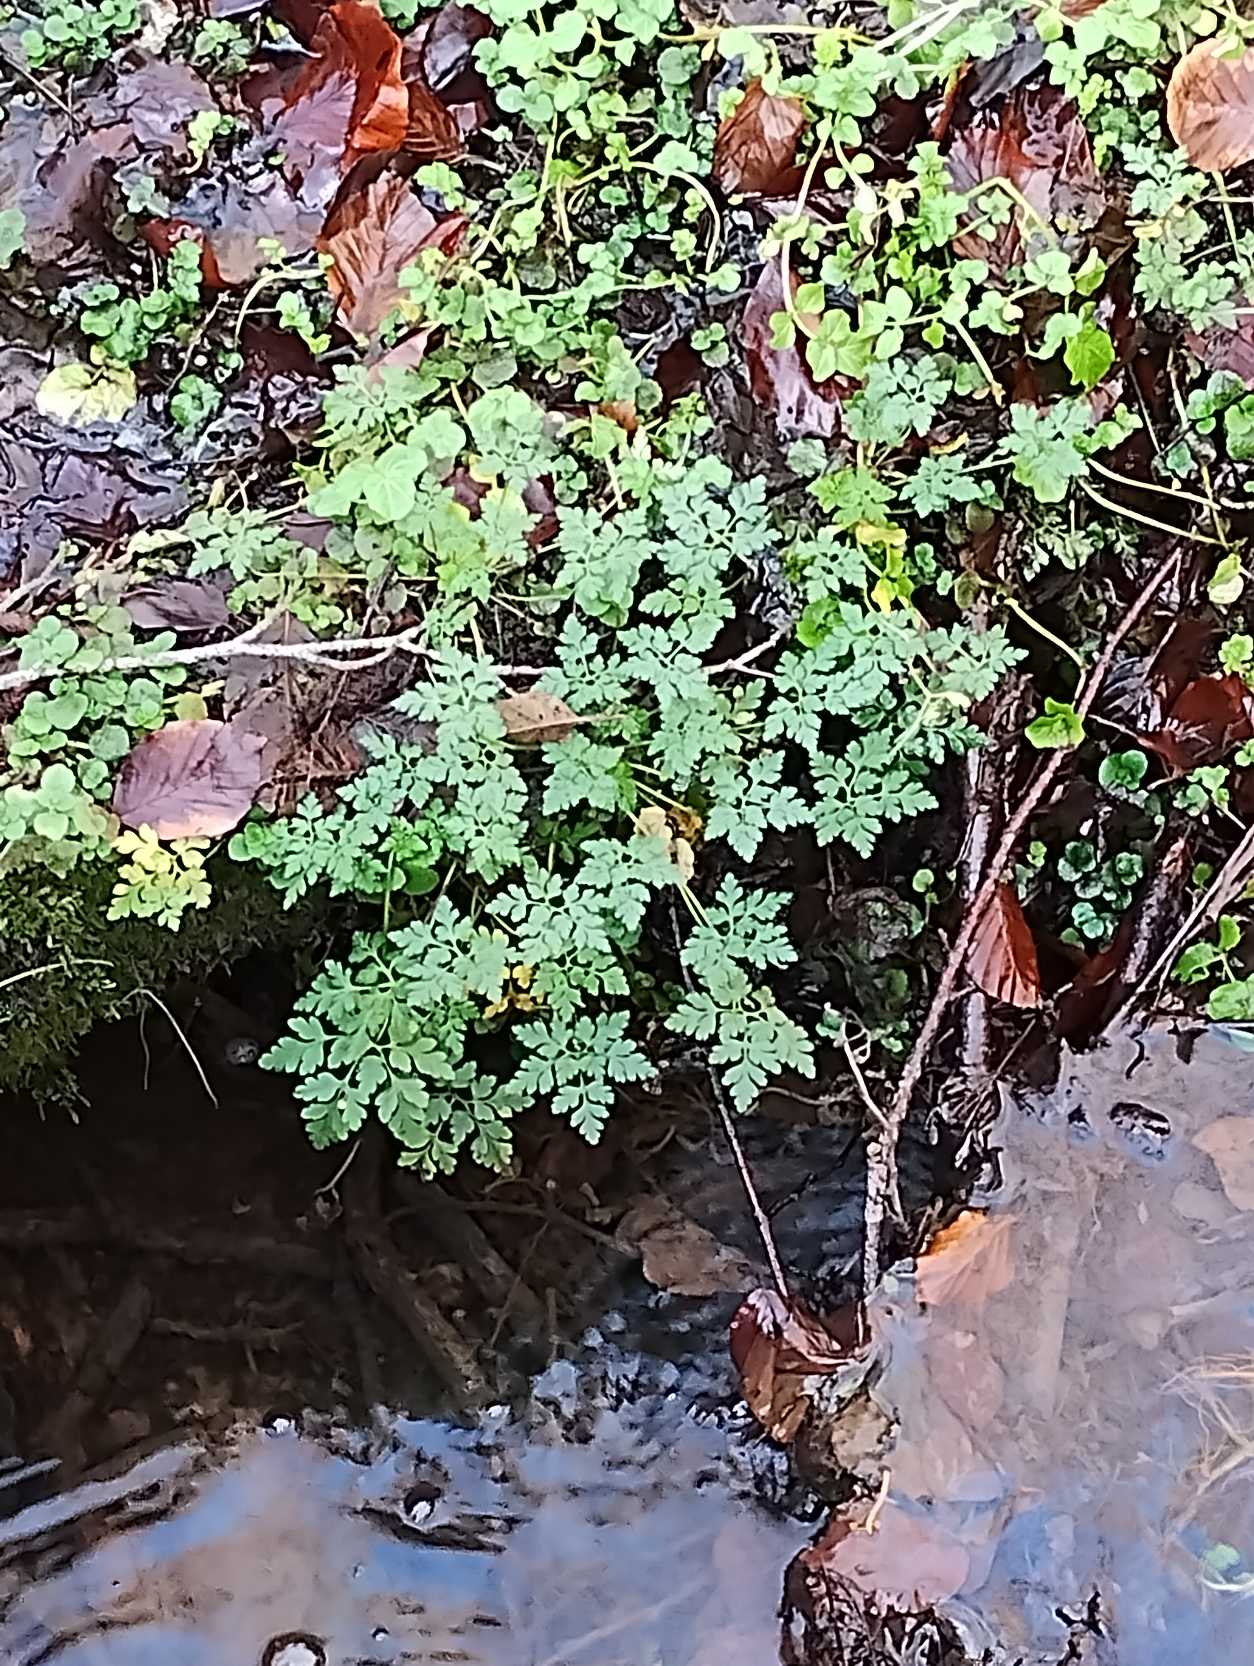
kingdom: Plantae
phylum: Tracheophyta
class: Magnoliopsida
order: Geraniales
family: Geraniaceae
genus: Geranium
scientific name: Geranium robertianum
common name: Stinkende storkenæb
